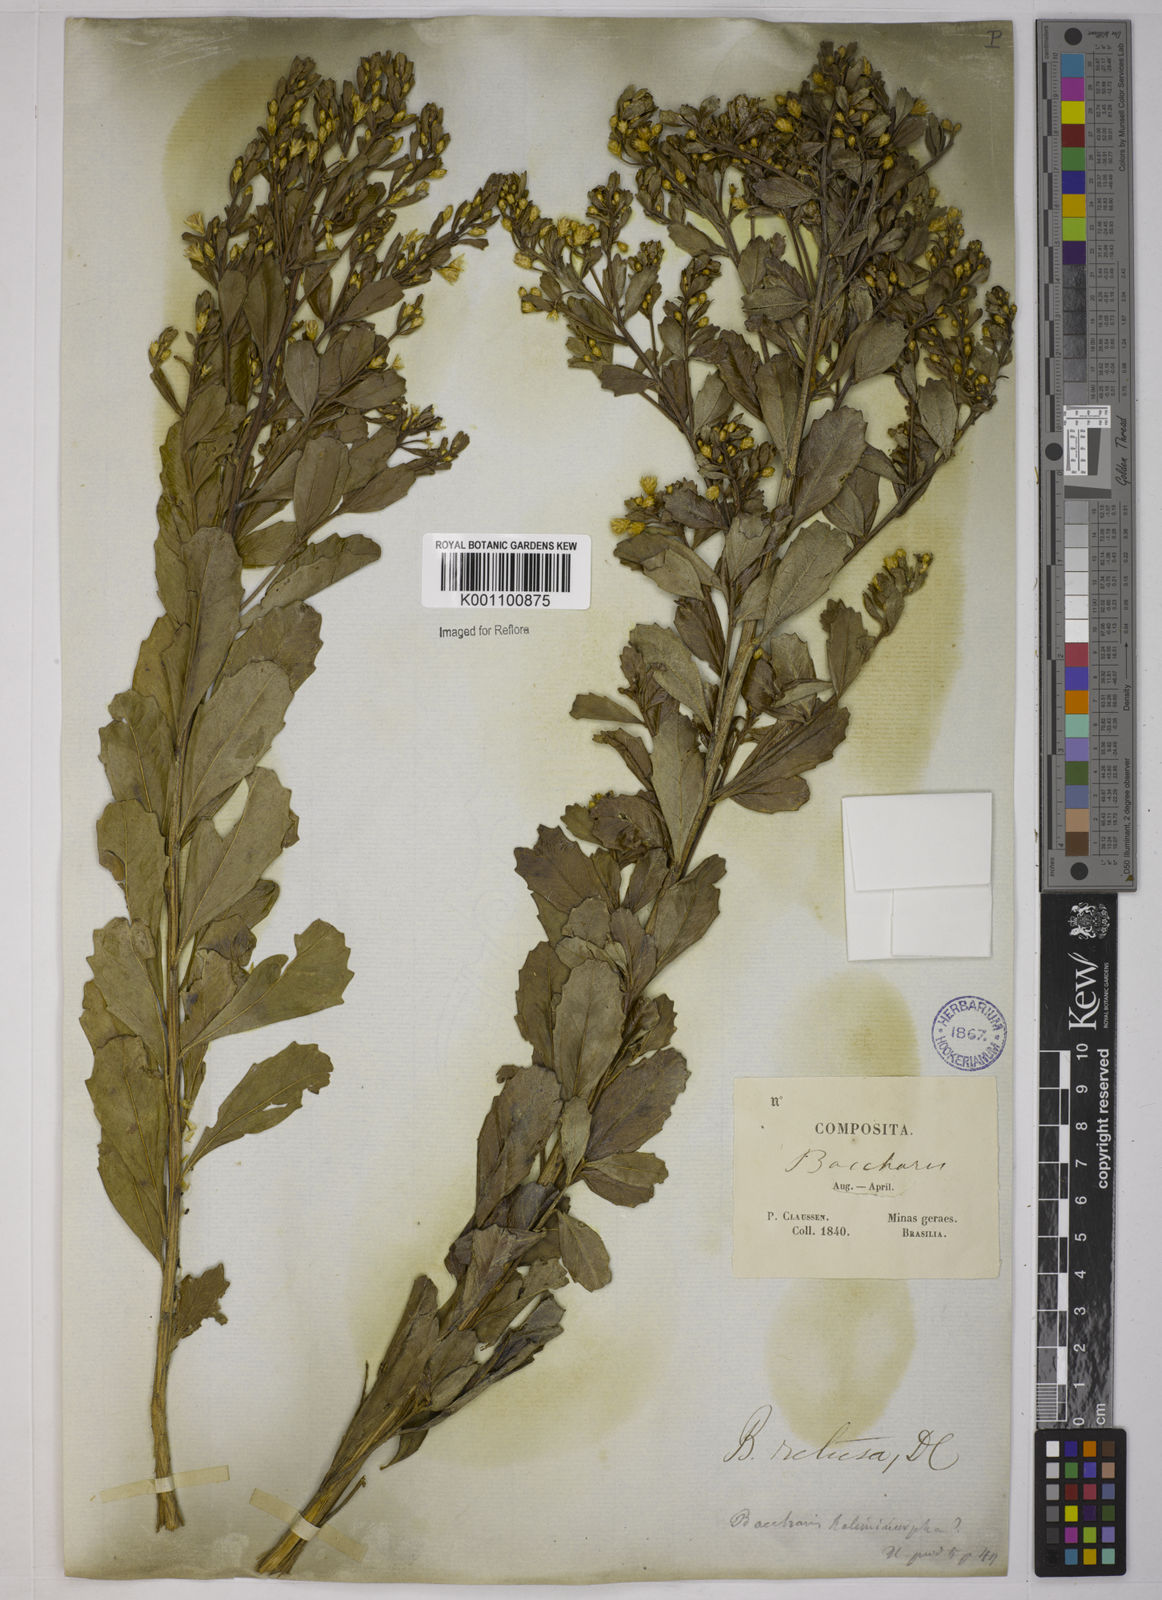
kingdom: Plantae
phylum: Tracheophyta
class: Magnoliopsida
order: Asterales
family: Asteraceae
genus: Baccharis
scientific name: Baccharis retusa
